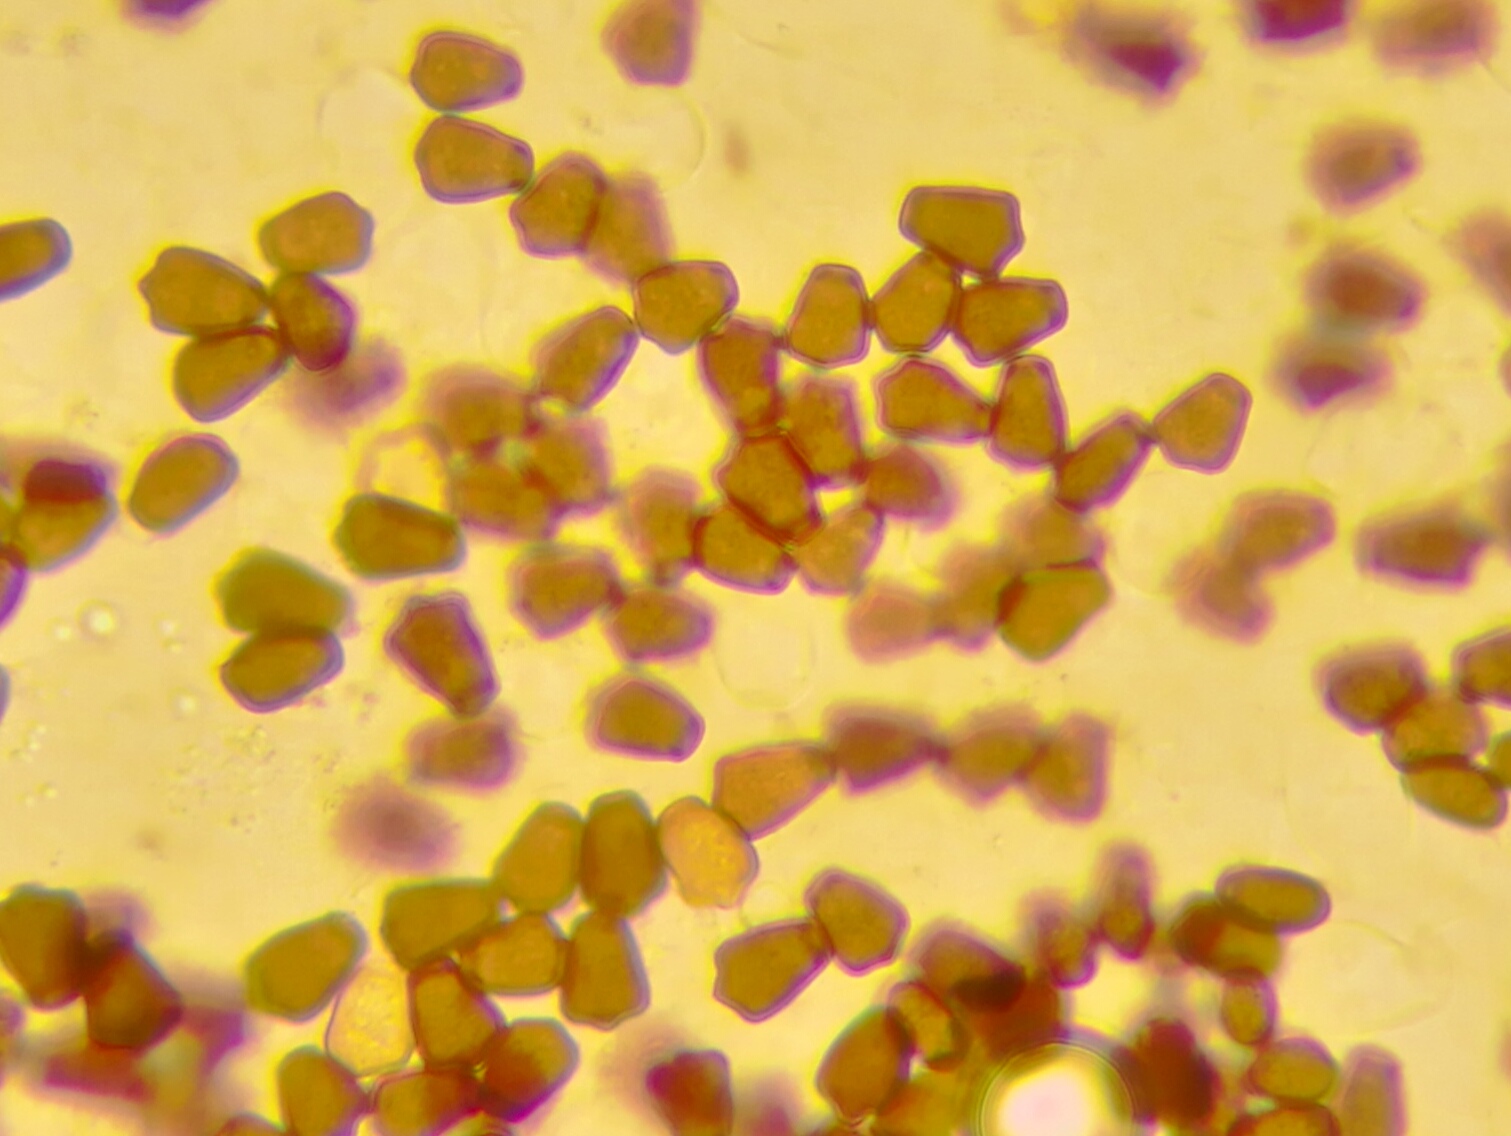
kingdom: Fungi
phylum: Basidiomycota
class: Agaricomycetes
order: Agaricales
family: Psathyrellaceae
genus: Tulosesus
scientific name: Tulosesus angulatus
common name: kul-blækhat
